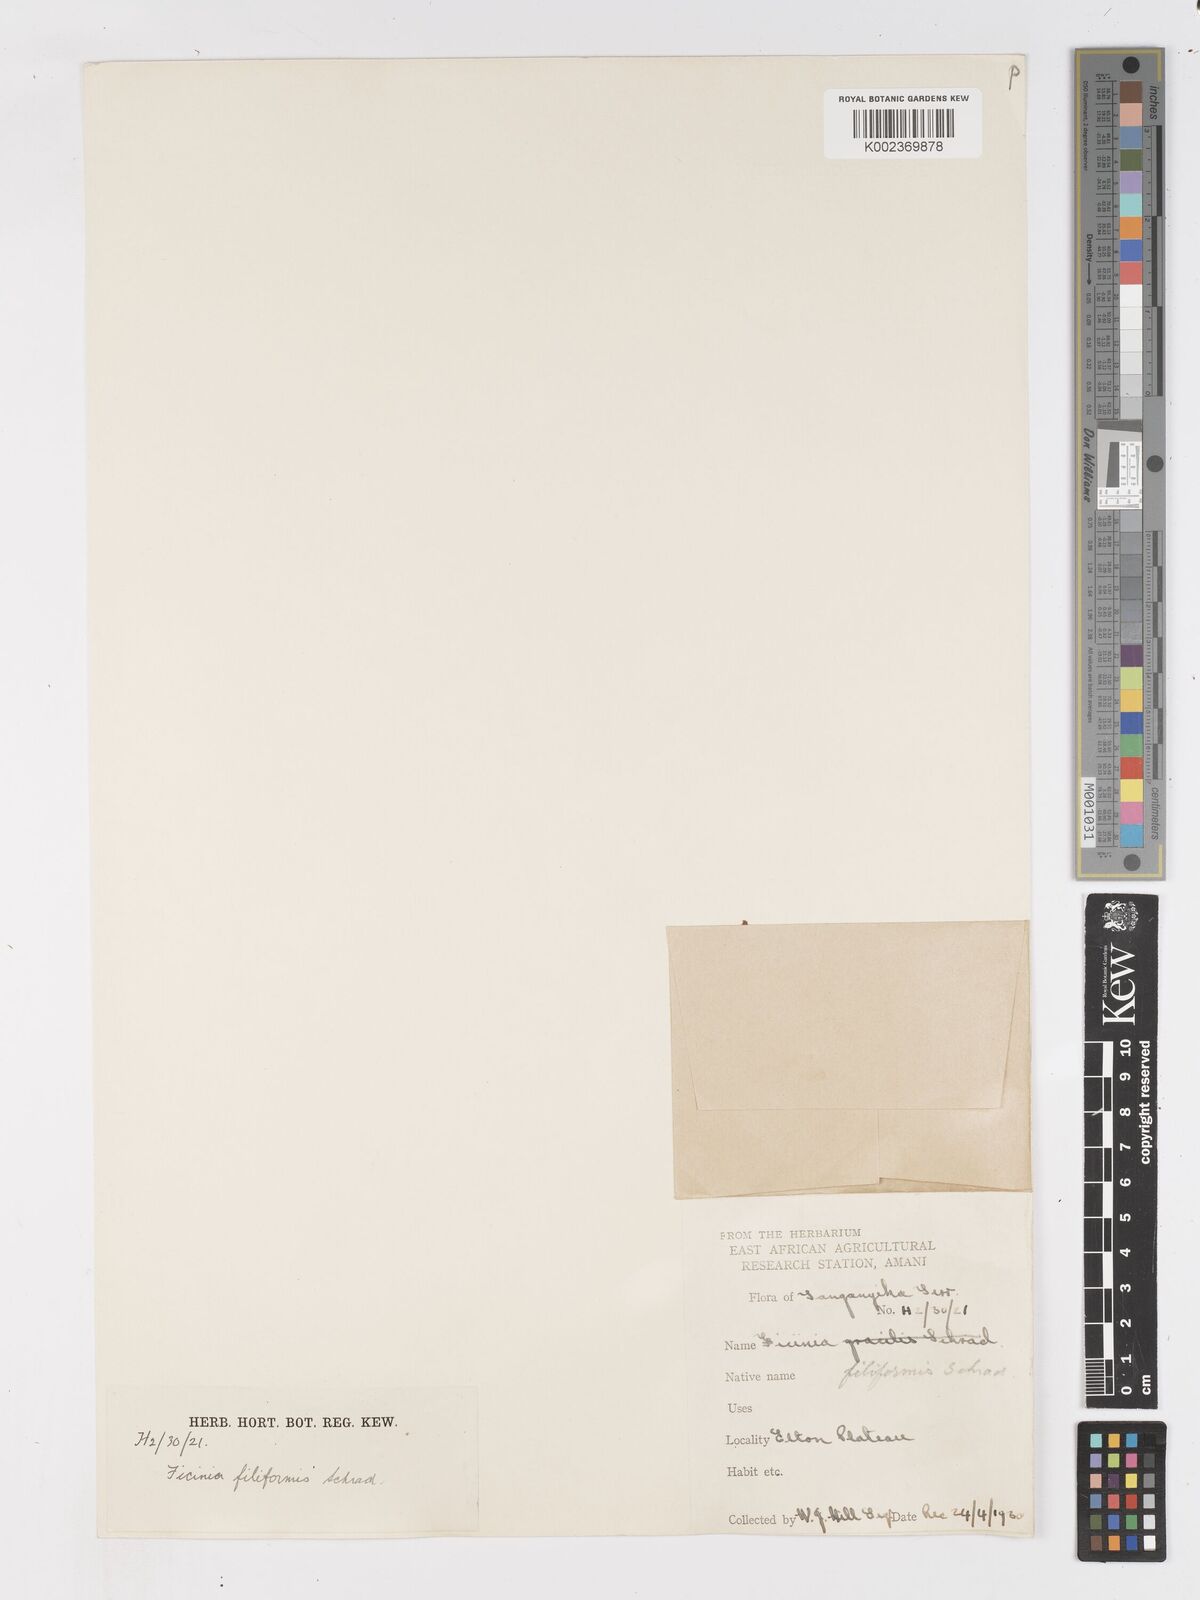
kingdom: Plantae
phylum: Tracheophyta
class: Liliopsida
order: Poales
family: Cyperaceae
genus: Ficinia
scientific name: Ficinia filiformis
